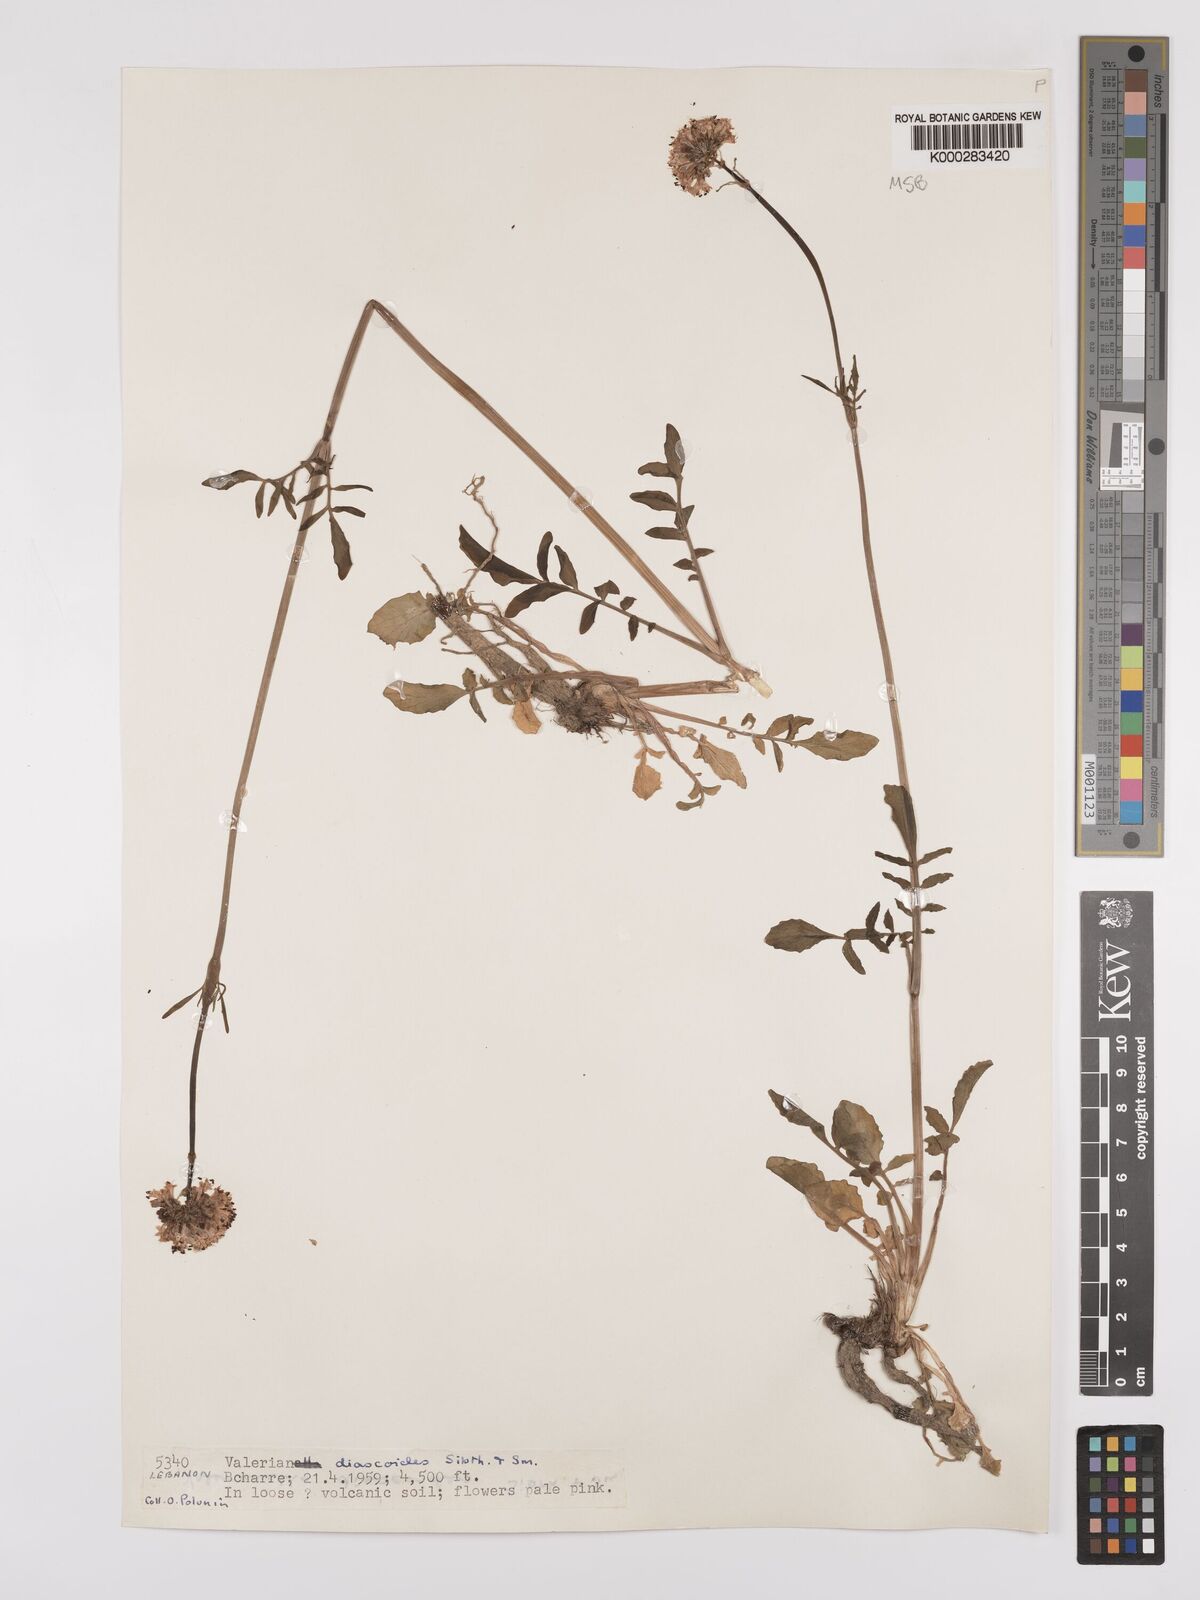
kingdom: Plantae
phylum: Tracheophyta
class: Magnoliopsida
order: Dipsacales
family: Caprifoliaceae
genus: Valeriana
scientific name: Valeriana dioscoridis
